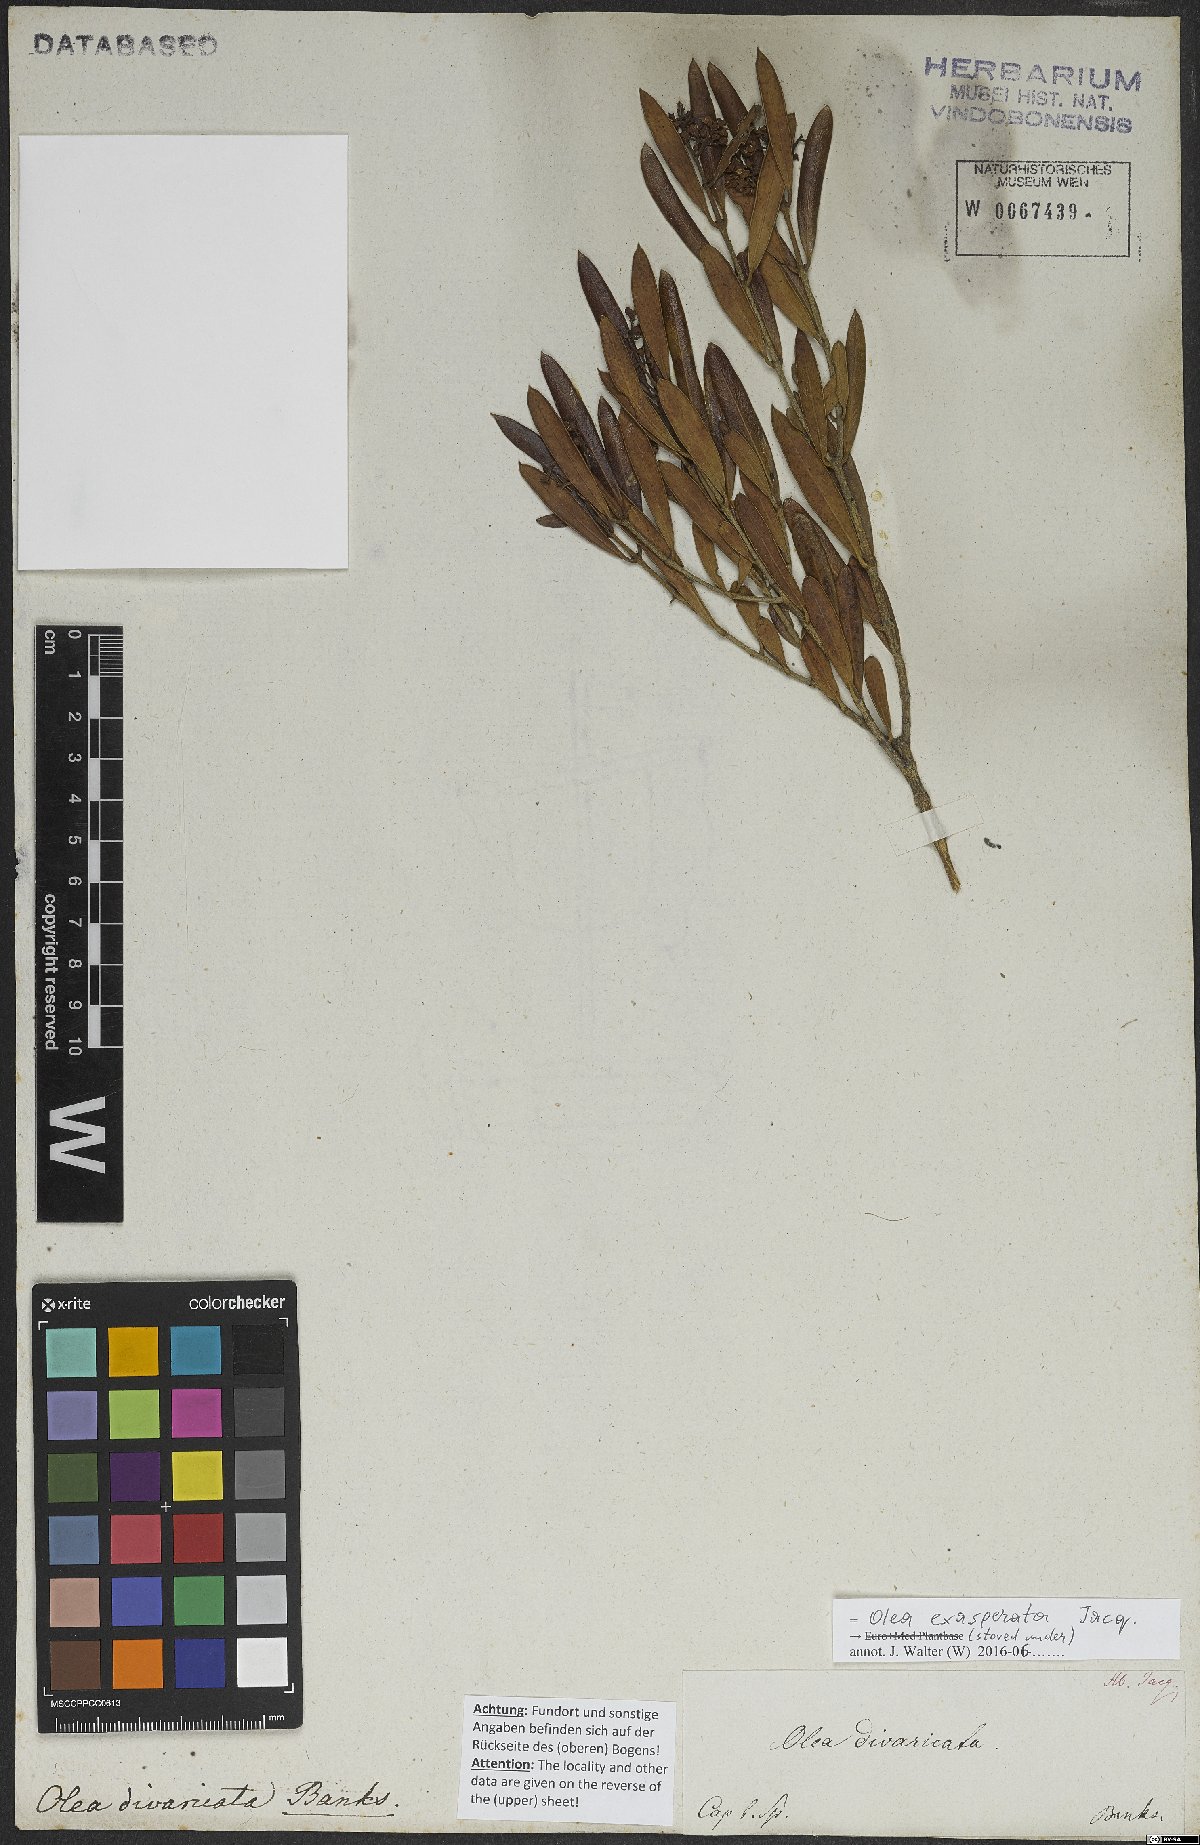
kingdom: Plantae
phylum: Tracheophyta
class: Magnoliopsida
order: Lamiales
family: Oleaceae
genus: Olea
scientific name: Olea exasperata
